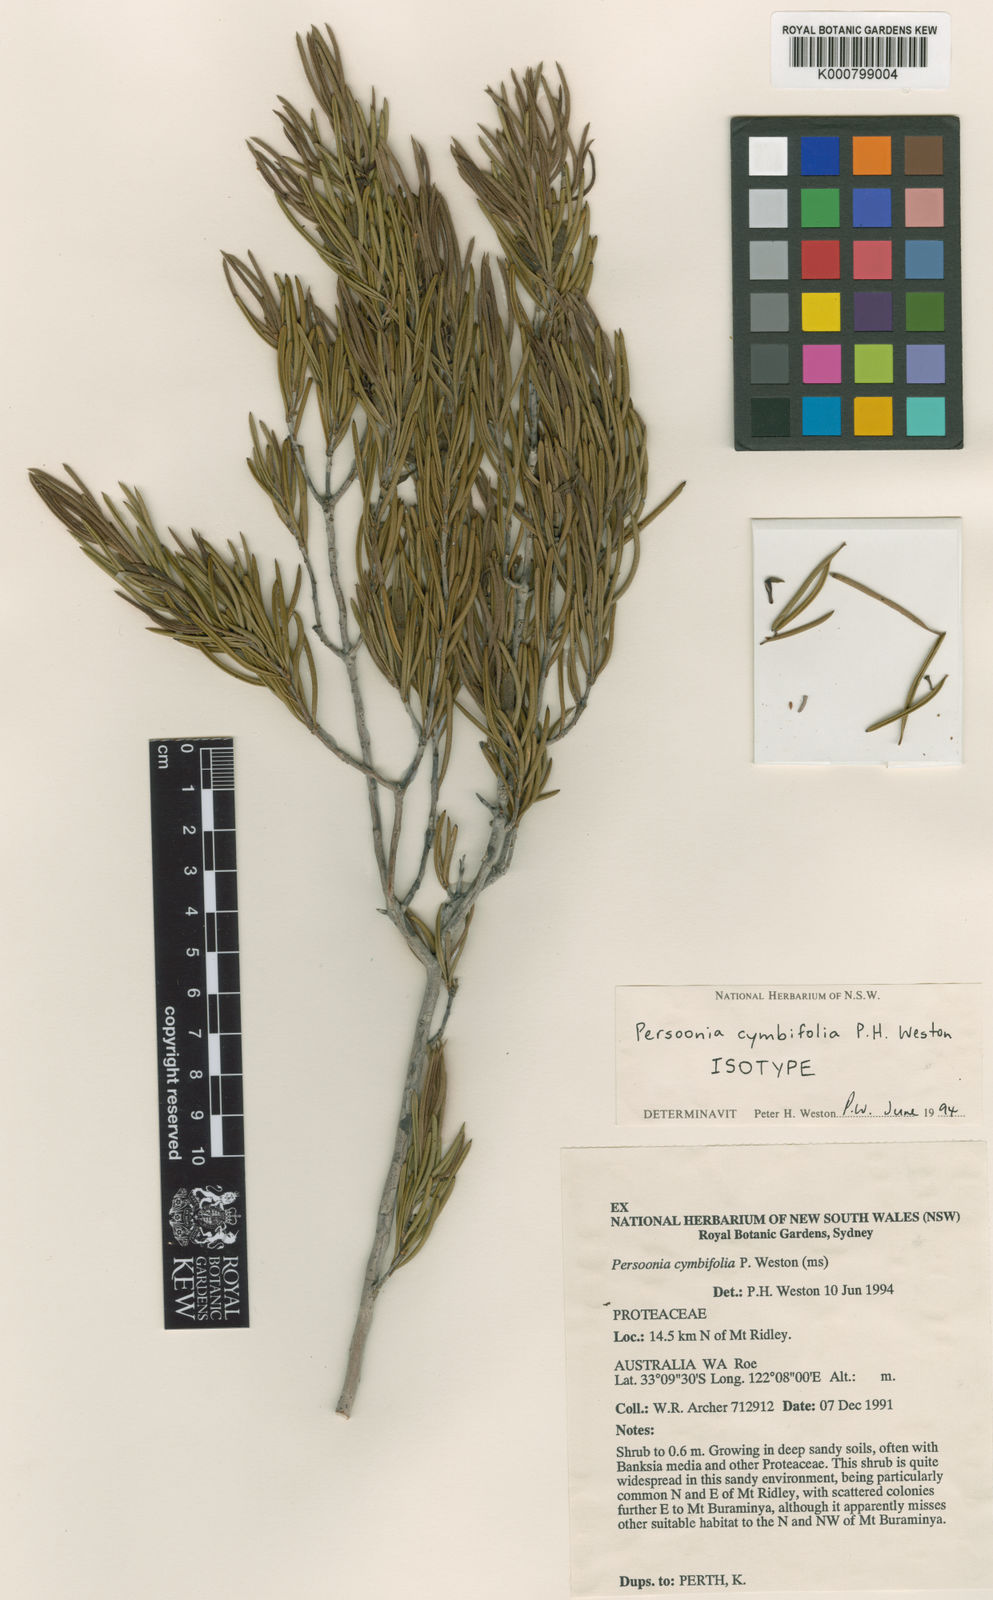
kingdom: Plantae
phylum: Tracheophyta
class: Magnoliopsida
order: Proteales
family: Proteaceae
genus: Persoonia
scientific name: Persoonia cymbifolia
